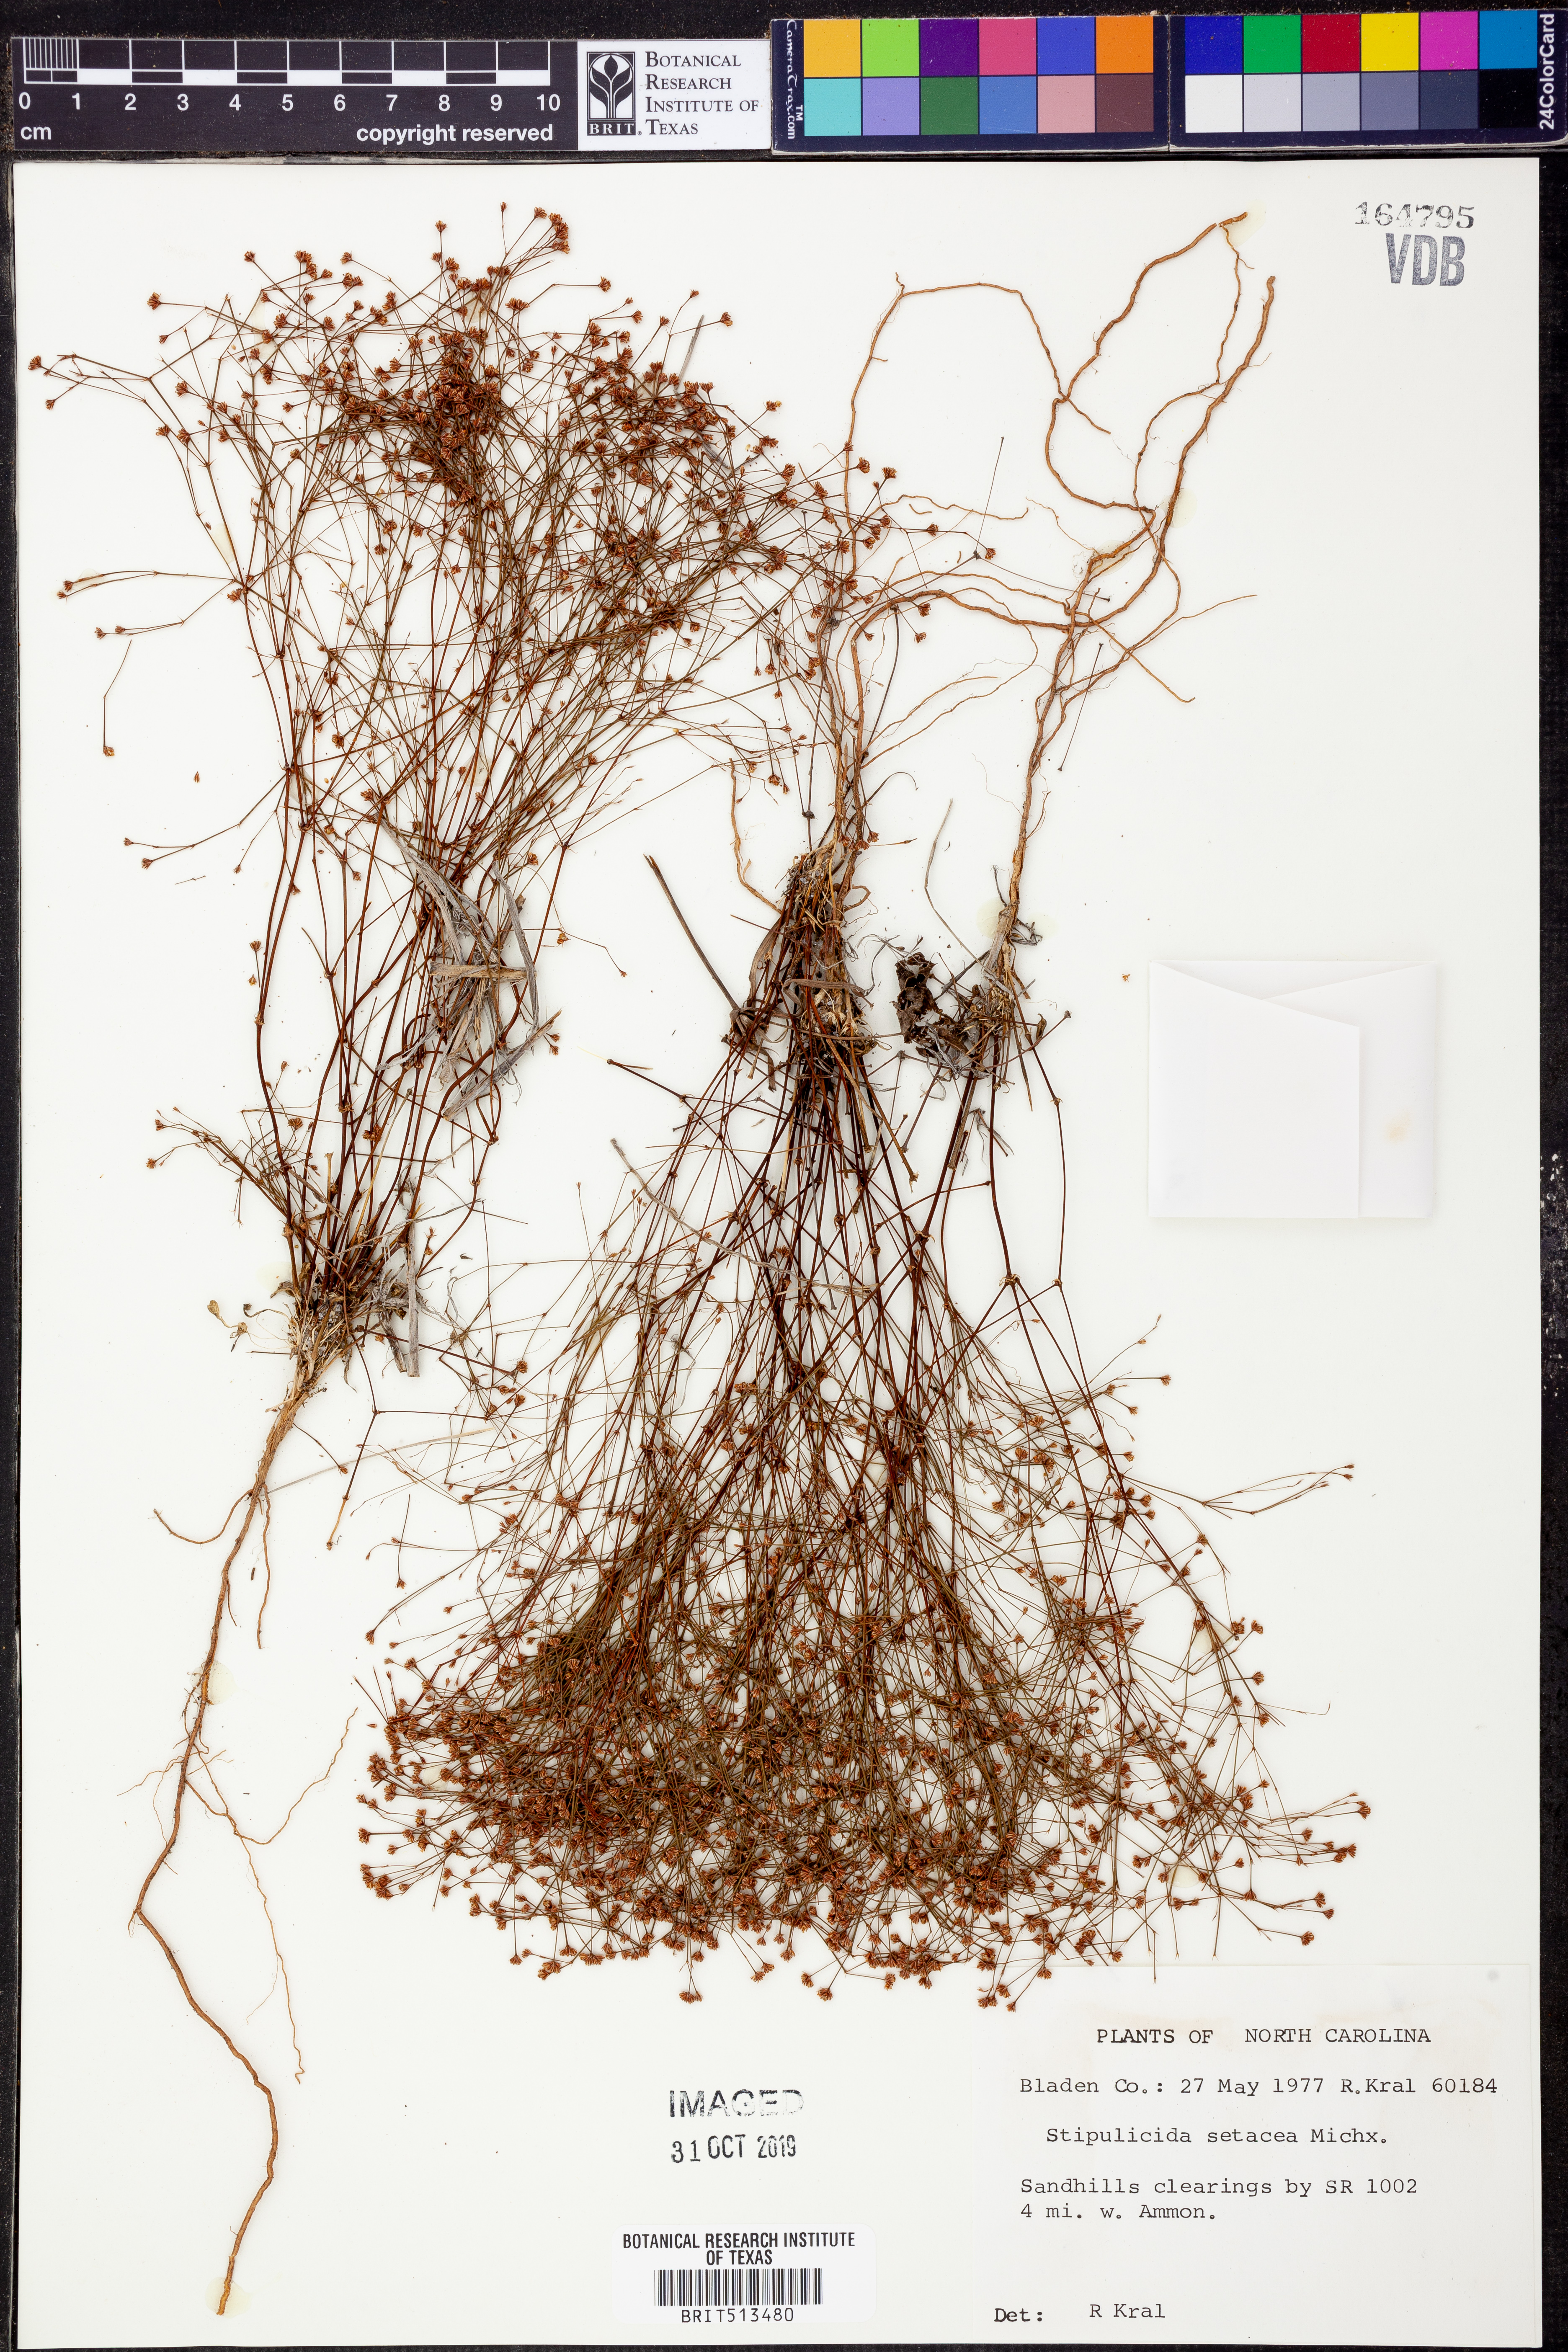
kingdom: Plantae
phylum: Tracheophyta
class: Magnoliopsida
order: Caryophyllales
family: Caryophyllaceae
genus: Stipulicida
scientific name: Stipulicida setacea
